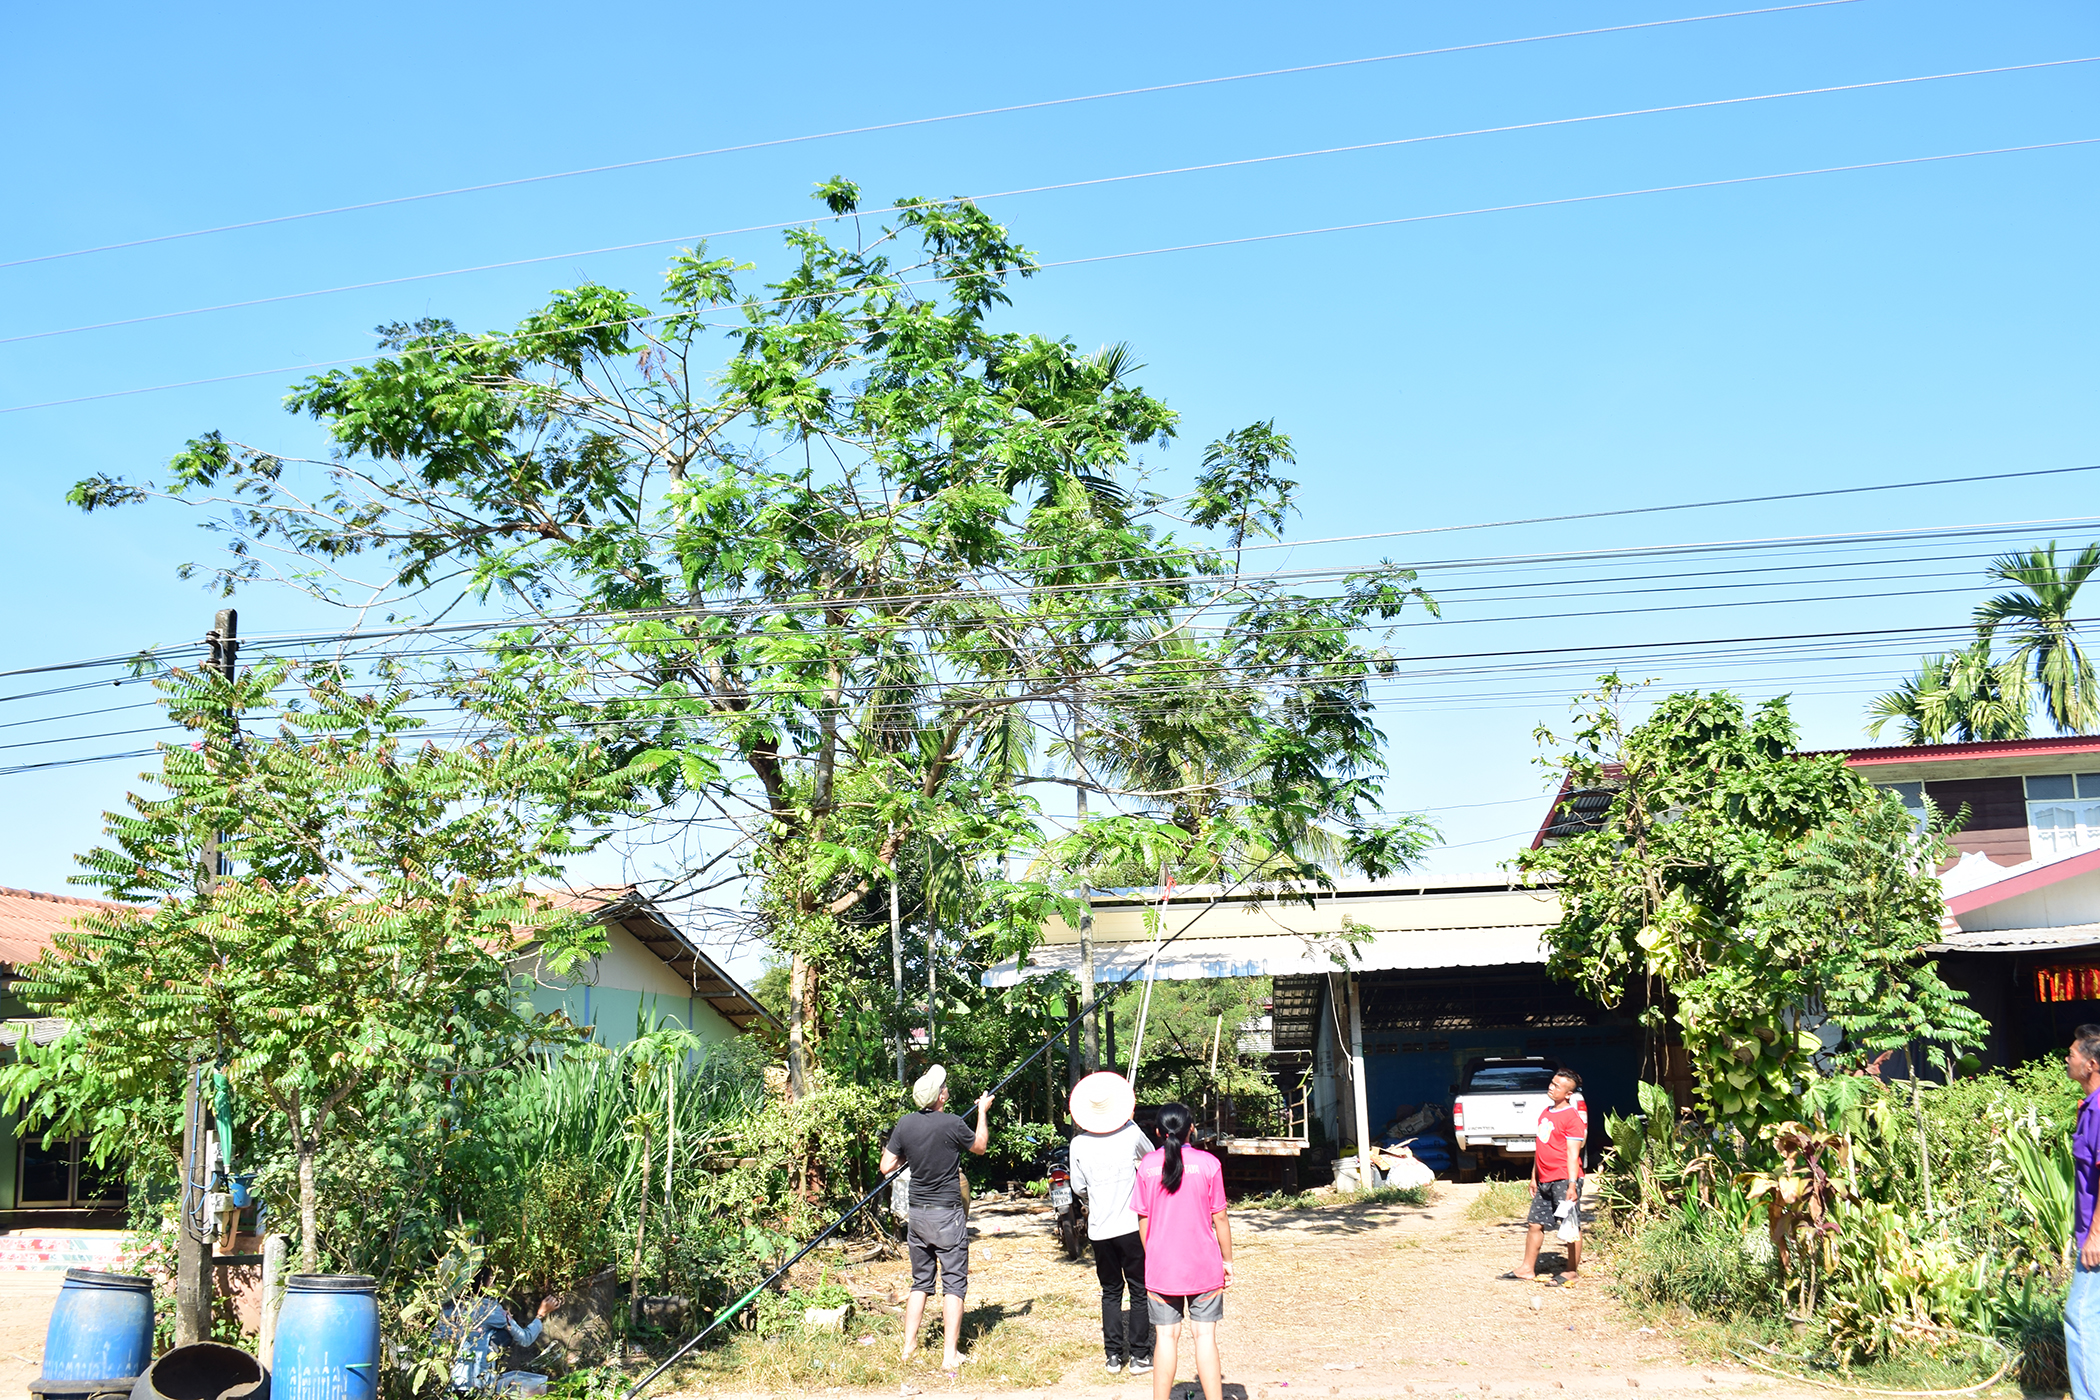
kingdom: Plantae
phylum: Tracheophyta
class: Magnoliopsida
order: Fabales
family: Fabaceae
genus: Parkia
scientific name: Parkia speciosa
